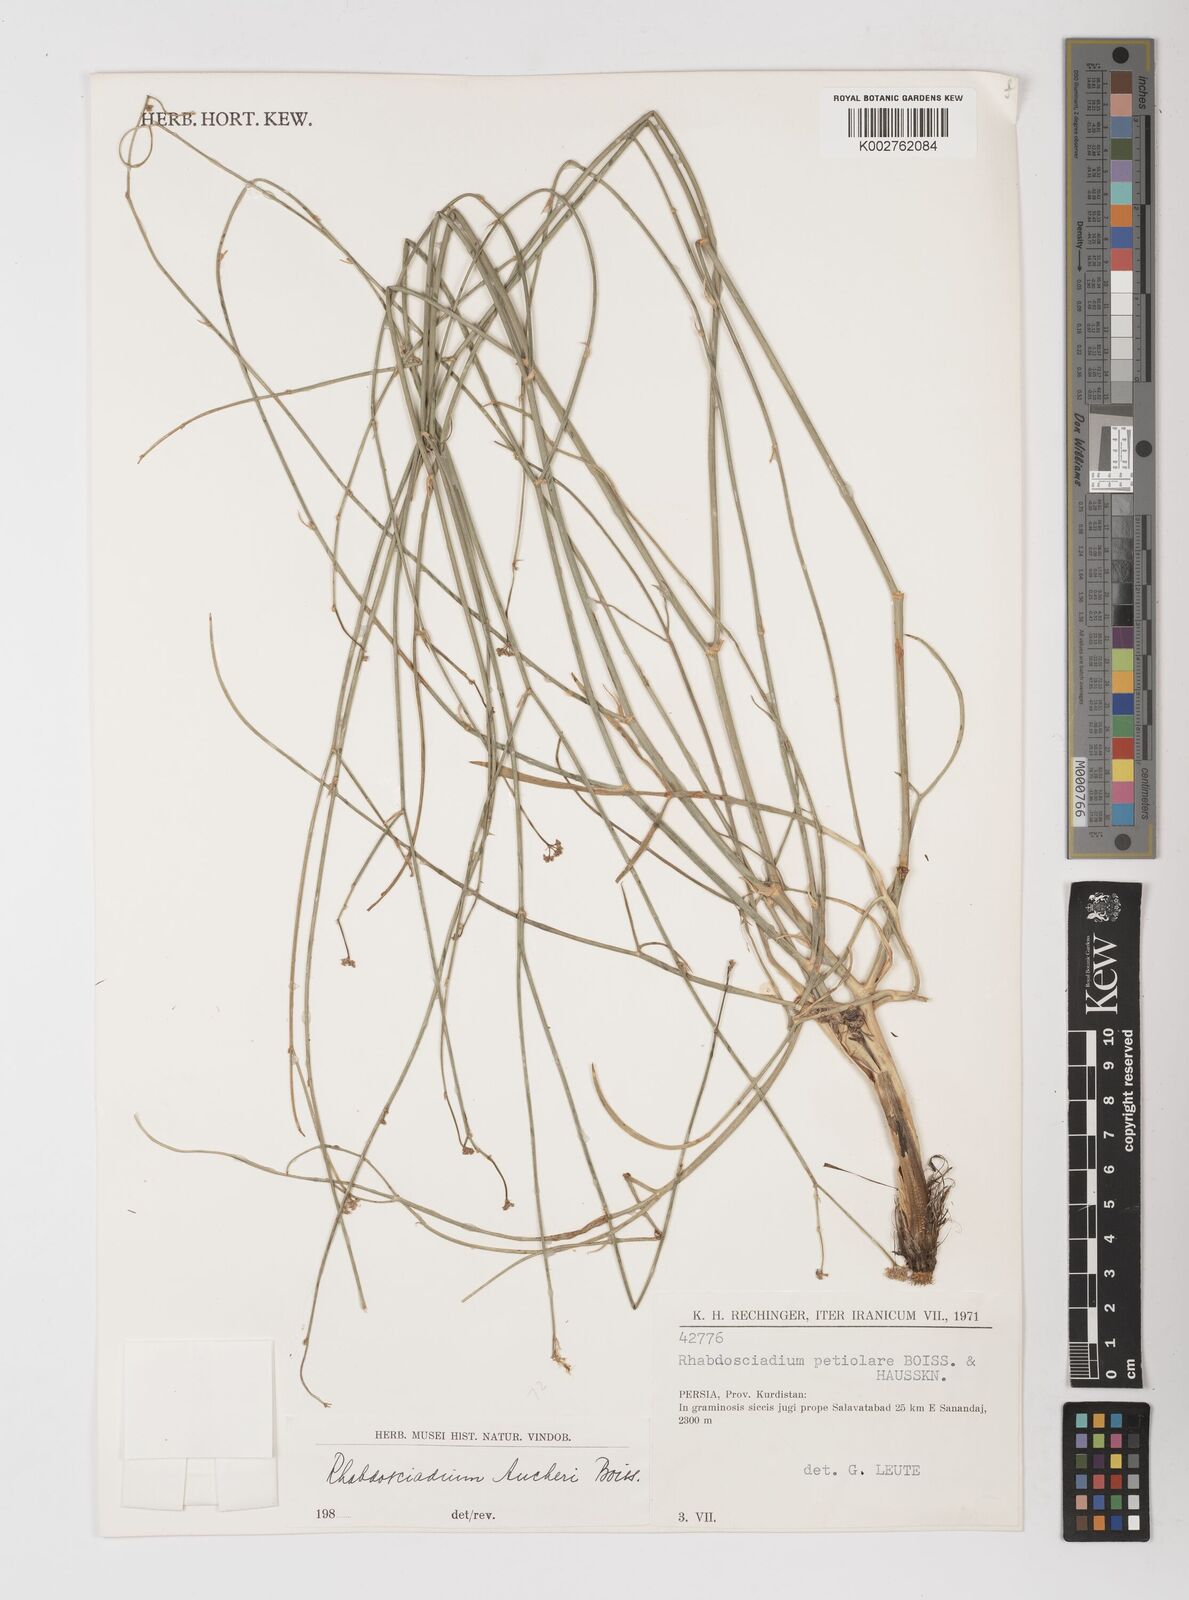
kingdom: Plantae
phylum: Tracheophyta
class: Magnoliopsida
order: Apiales
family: Apiaceae
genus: Rhabdosciadium
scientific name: Rhabdosciadium aucheri
